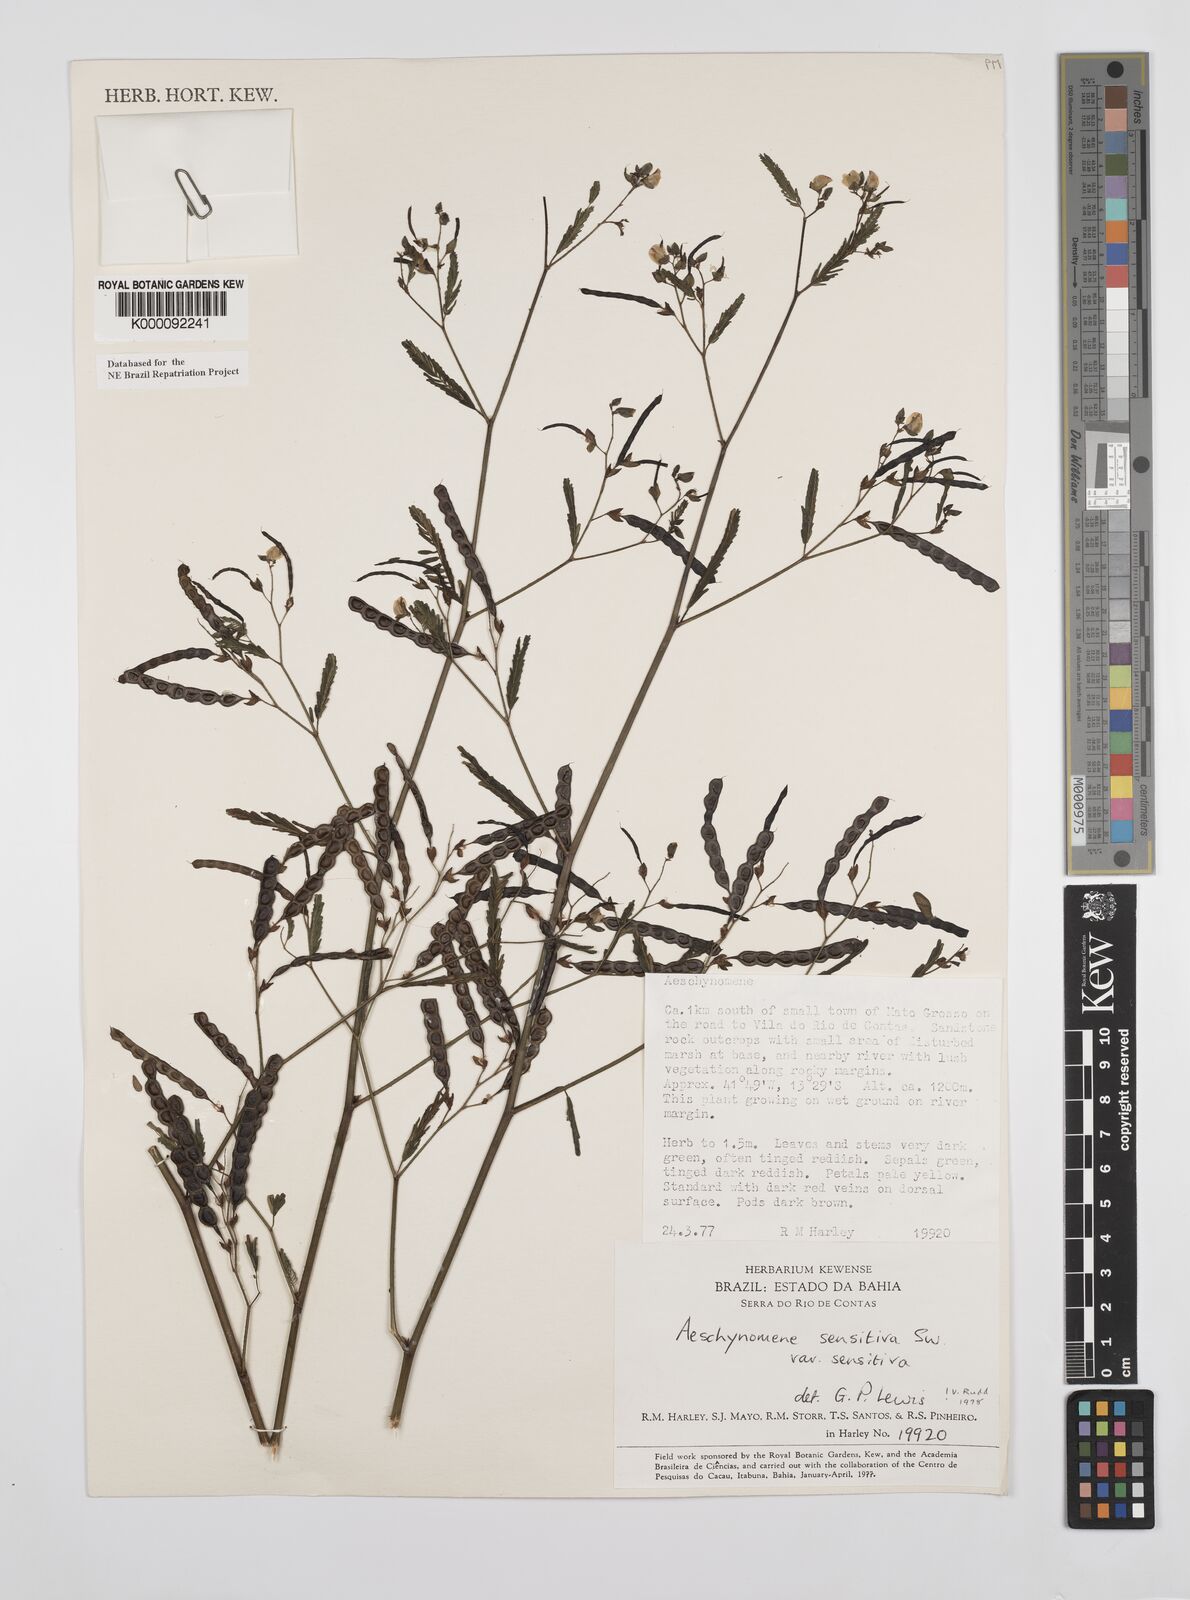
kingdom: Plantae
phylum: Tracheophyta
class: Magnoliopsida
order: Fabales
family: Fabaceae
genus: Aeschynomene
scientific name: Aeschynomene sensitiva
